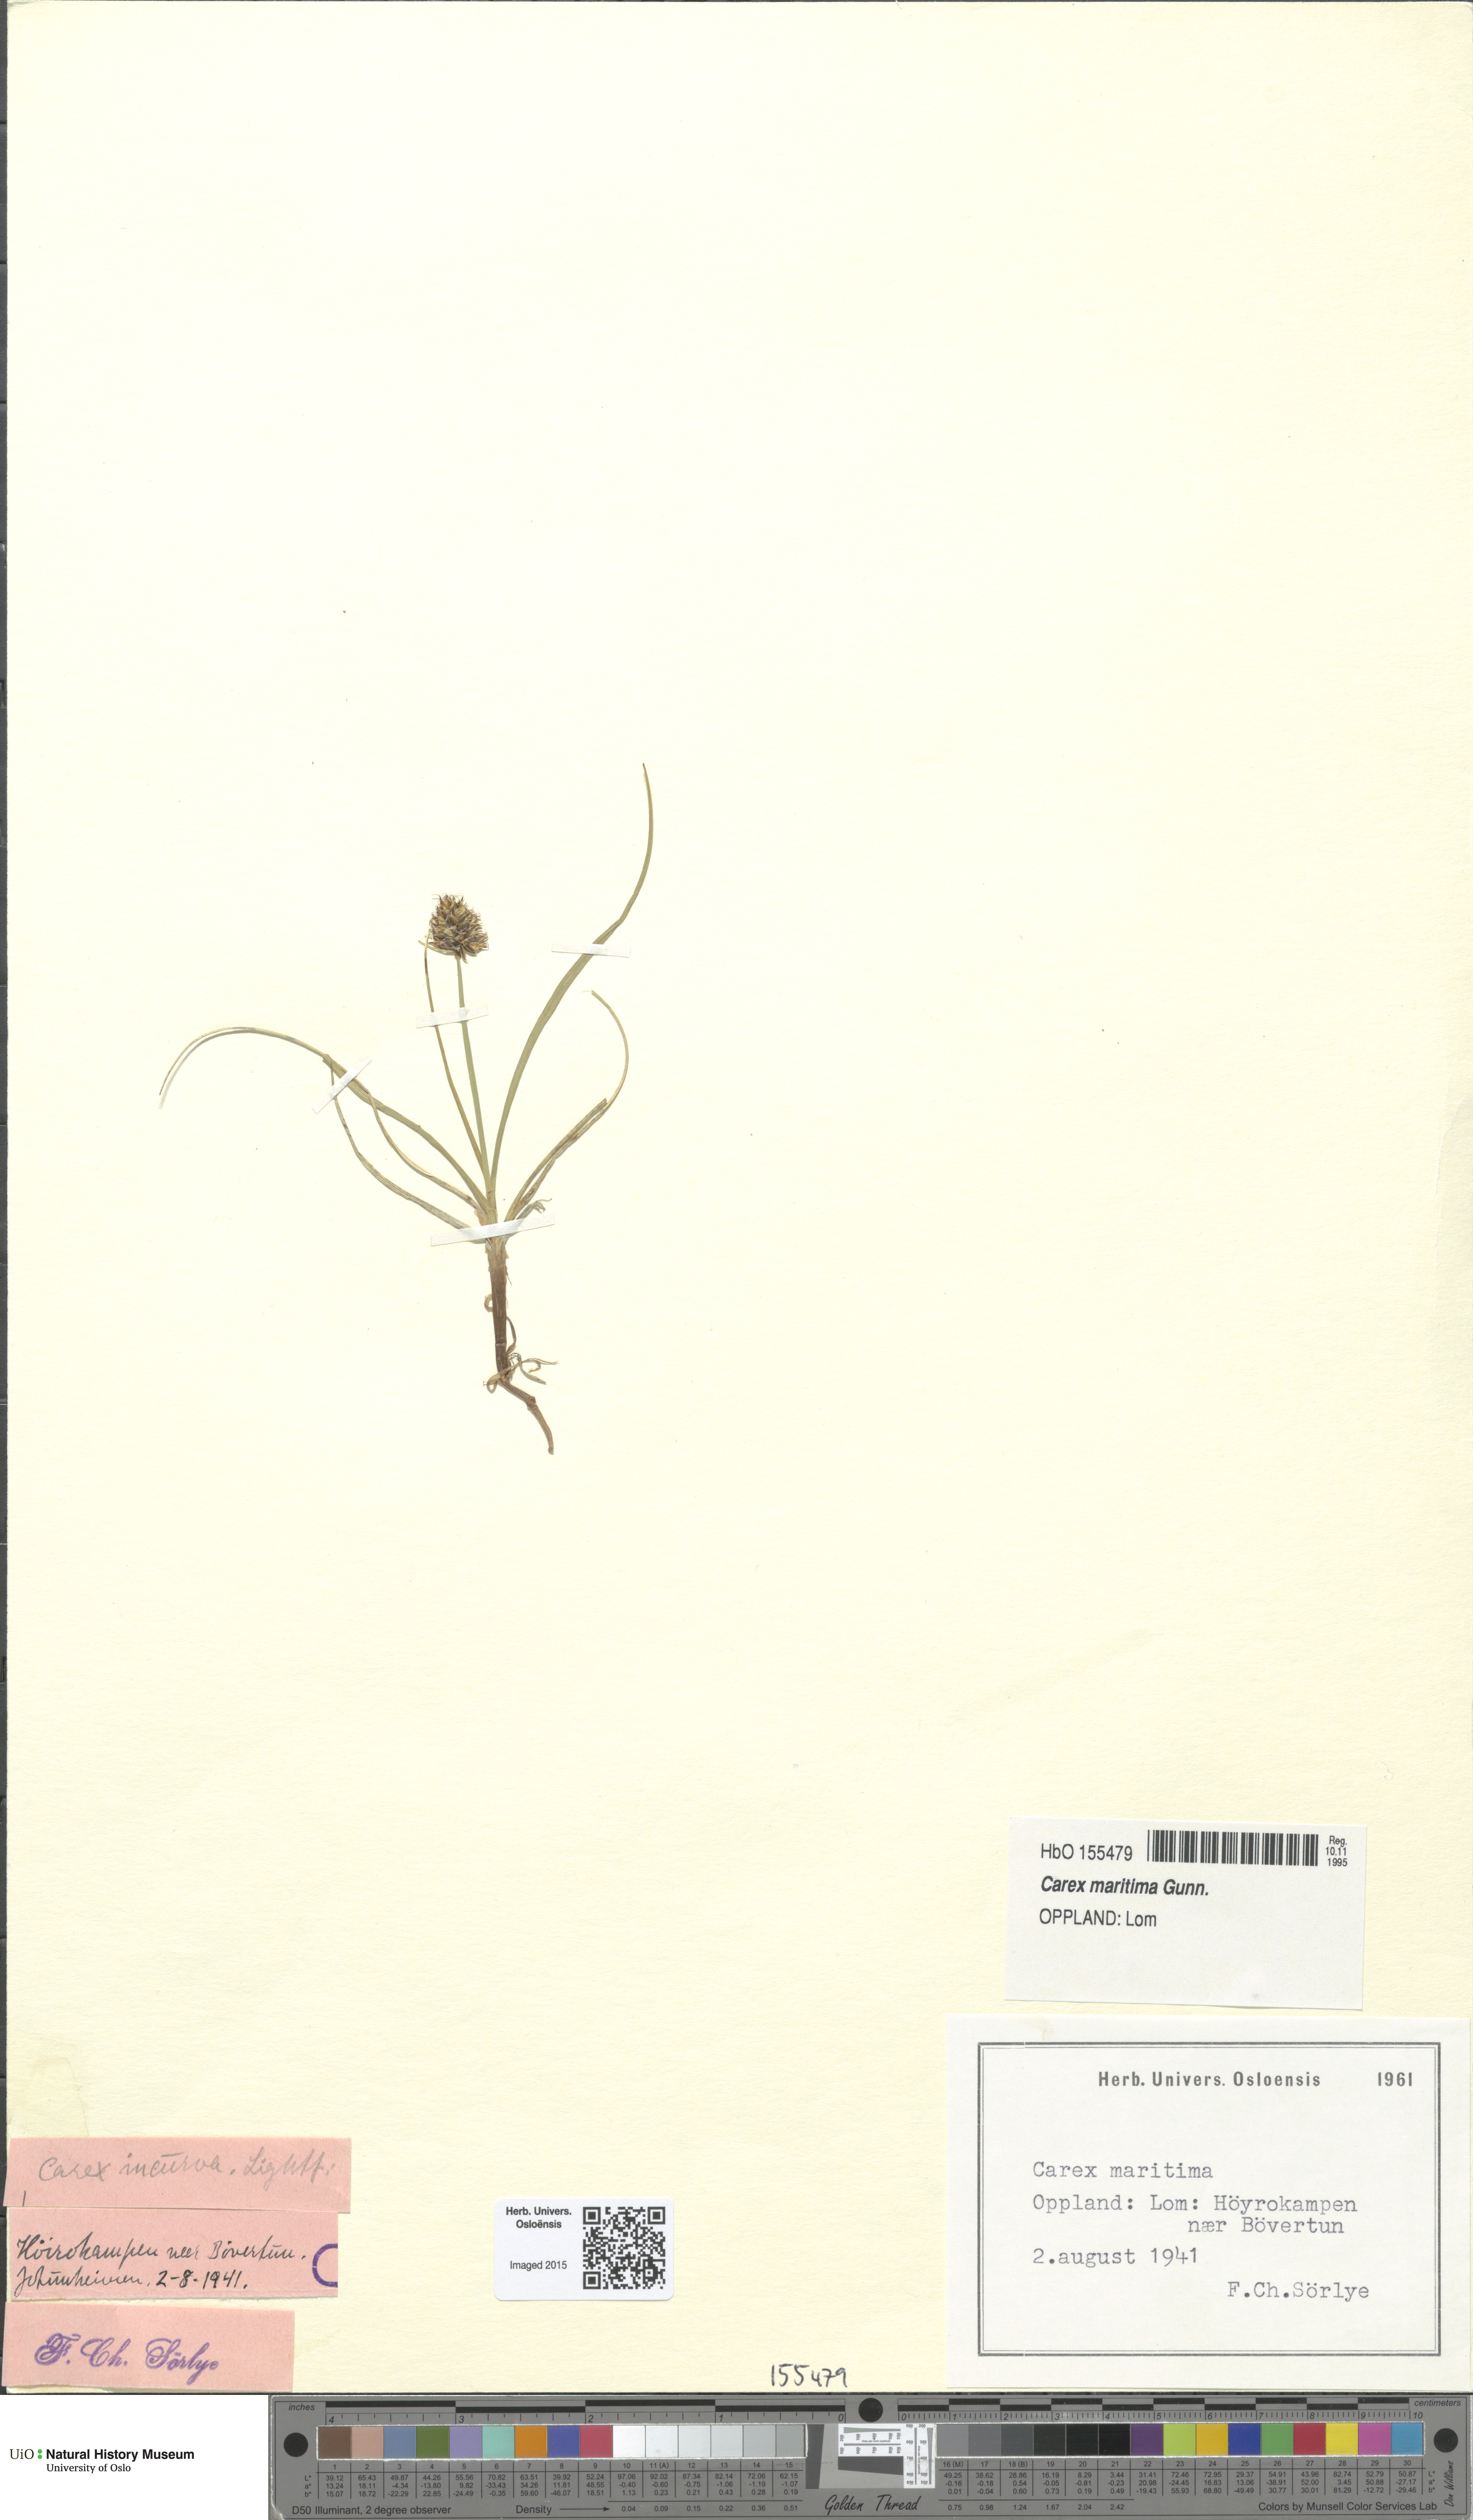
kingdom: Plantae
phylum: Tracheophyta
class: Liliopsida
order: Poales
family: Cyperaceae
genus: Carex
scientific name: Carex maritima
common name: Curved sedge
